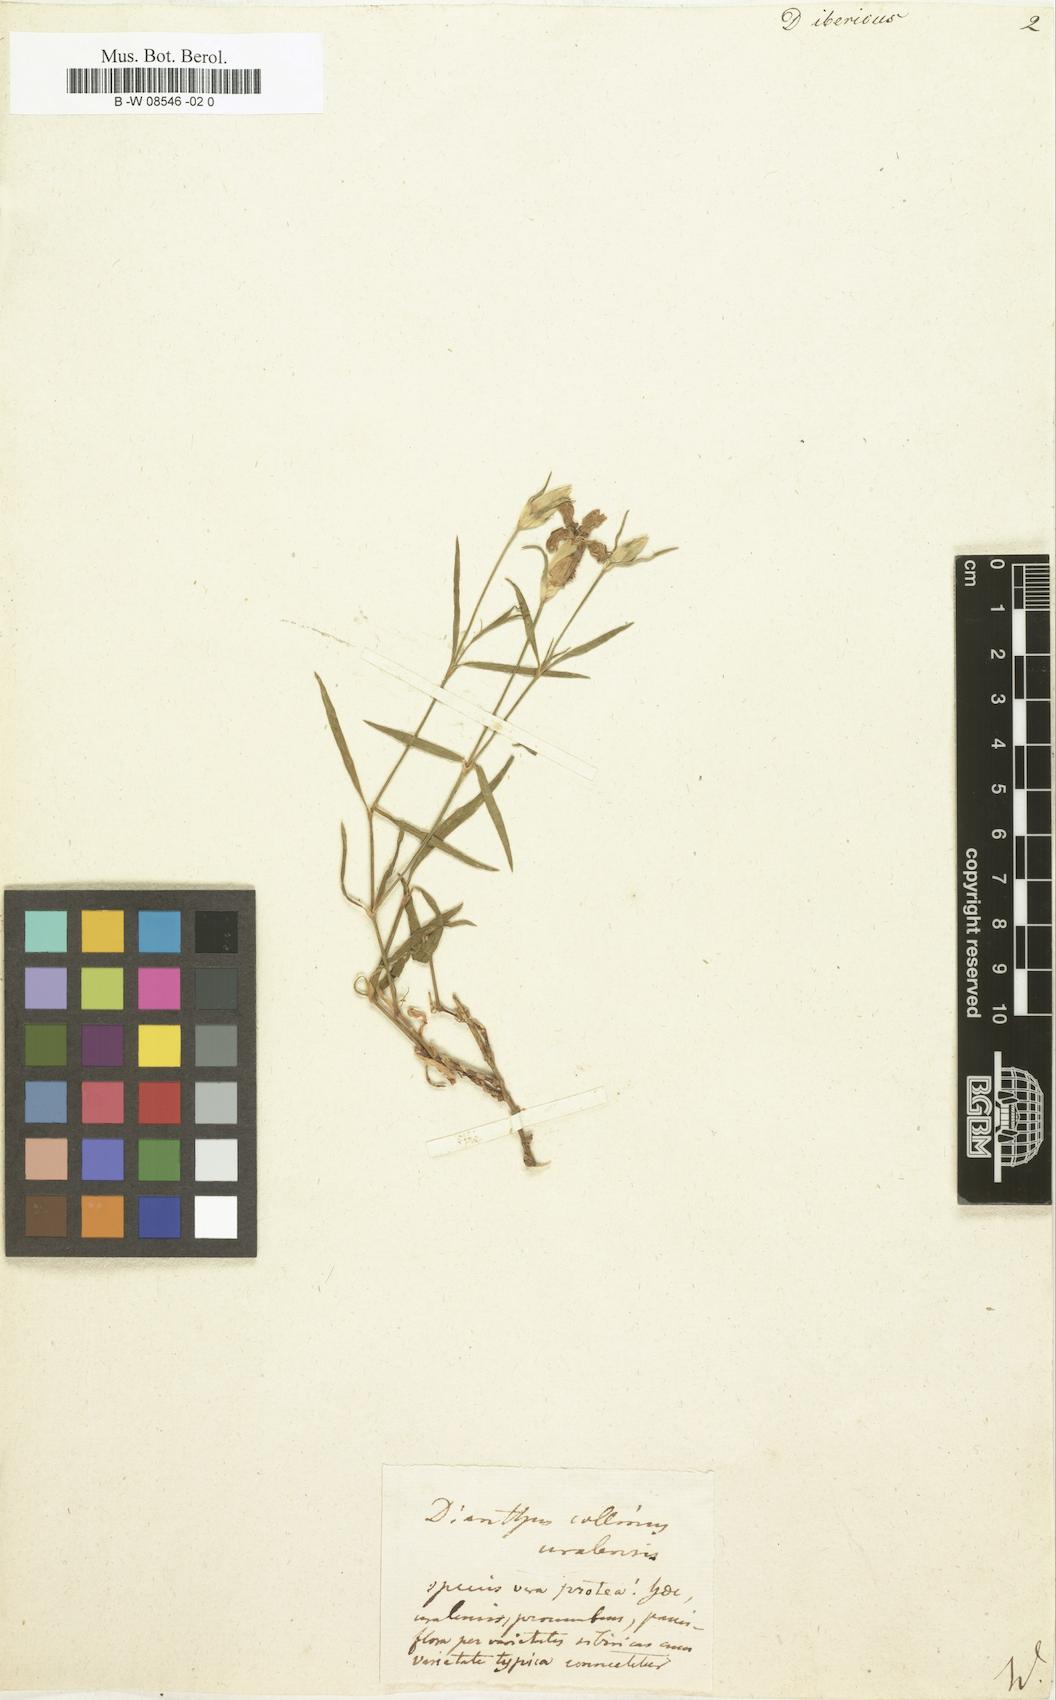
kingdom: Plantae
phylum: Tracheophyta
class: Magnoliopsida
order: Caryophyllales
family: Caryophyllaceae
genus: Dianthus
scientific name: Dianthus
